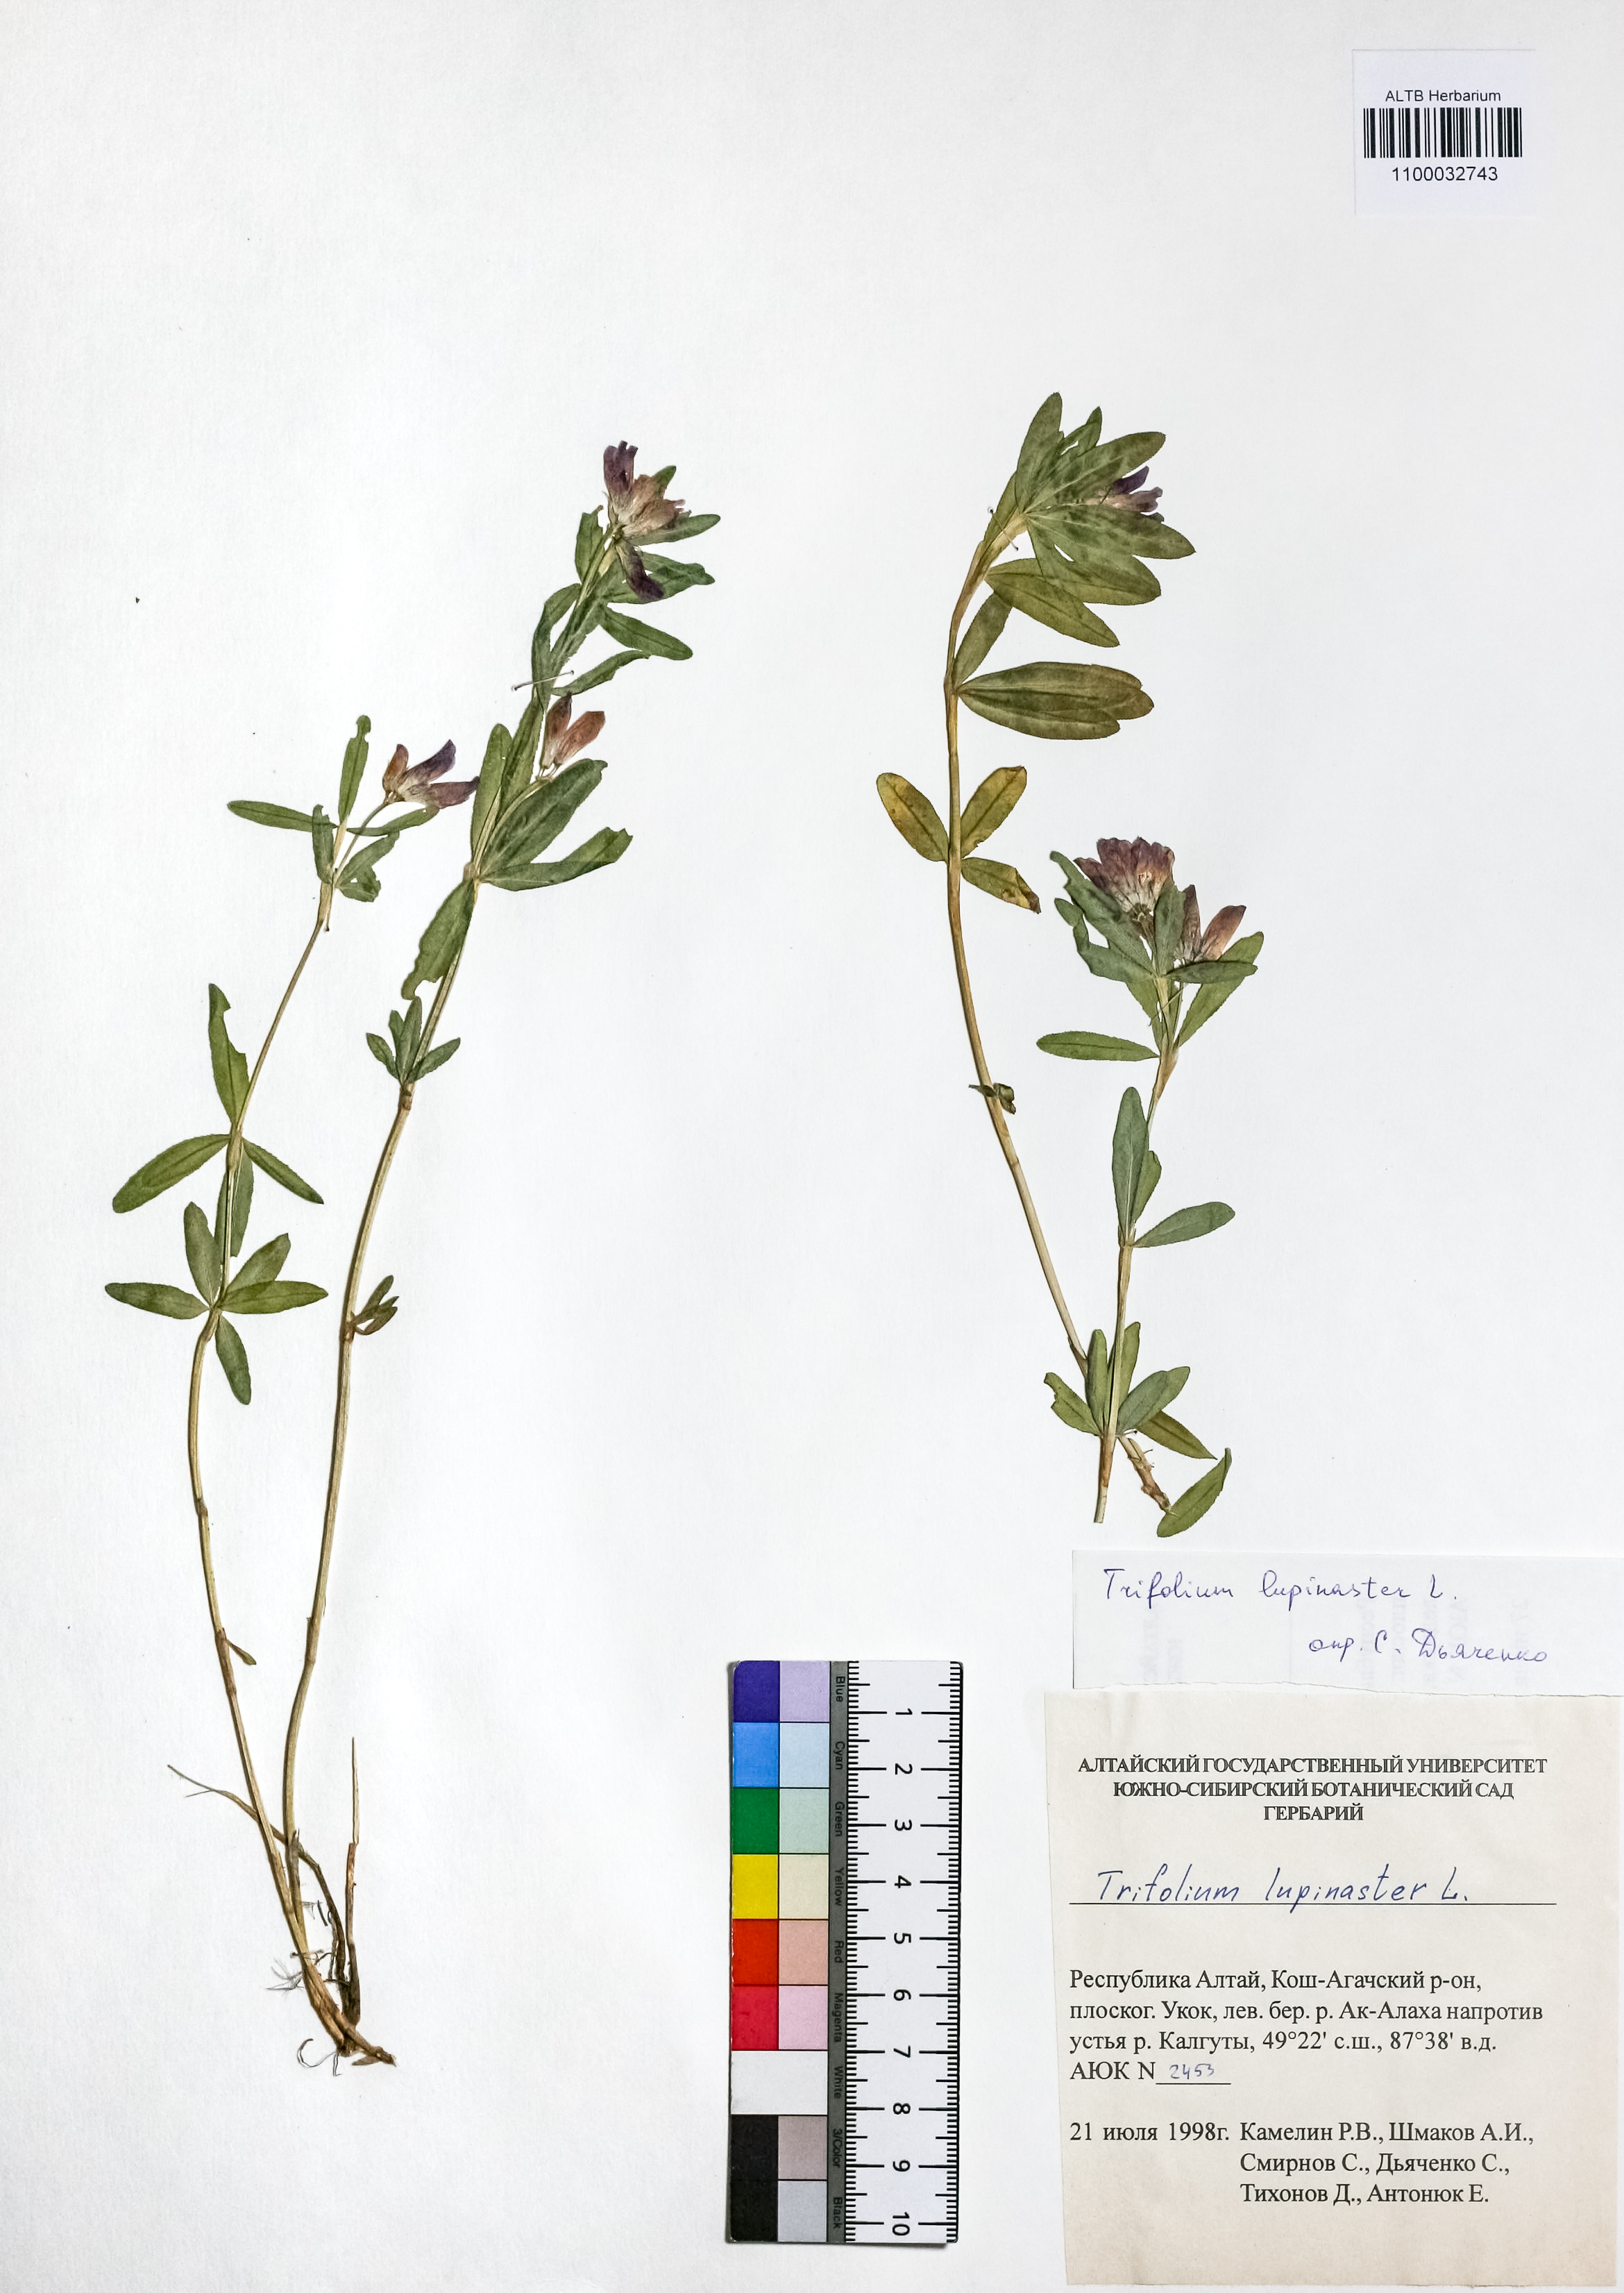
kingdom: Plantae
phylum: Tracheophyta
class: Magnoliopsida
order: Fabales
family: Fabaceae
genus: Trifolium
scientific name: Trifolium lupinaster
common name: Lupine clover
